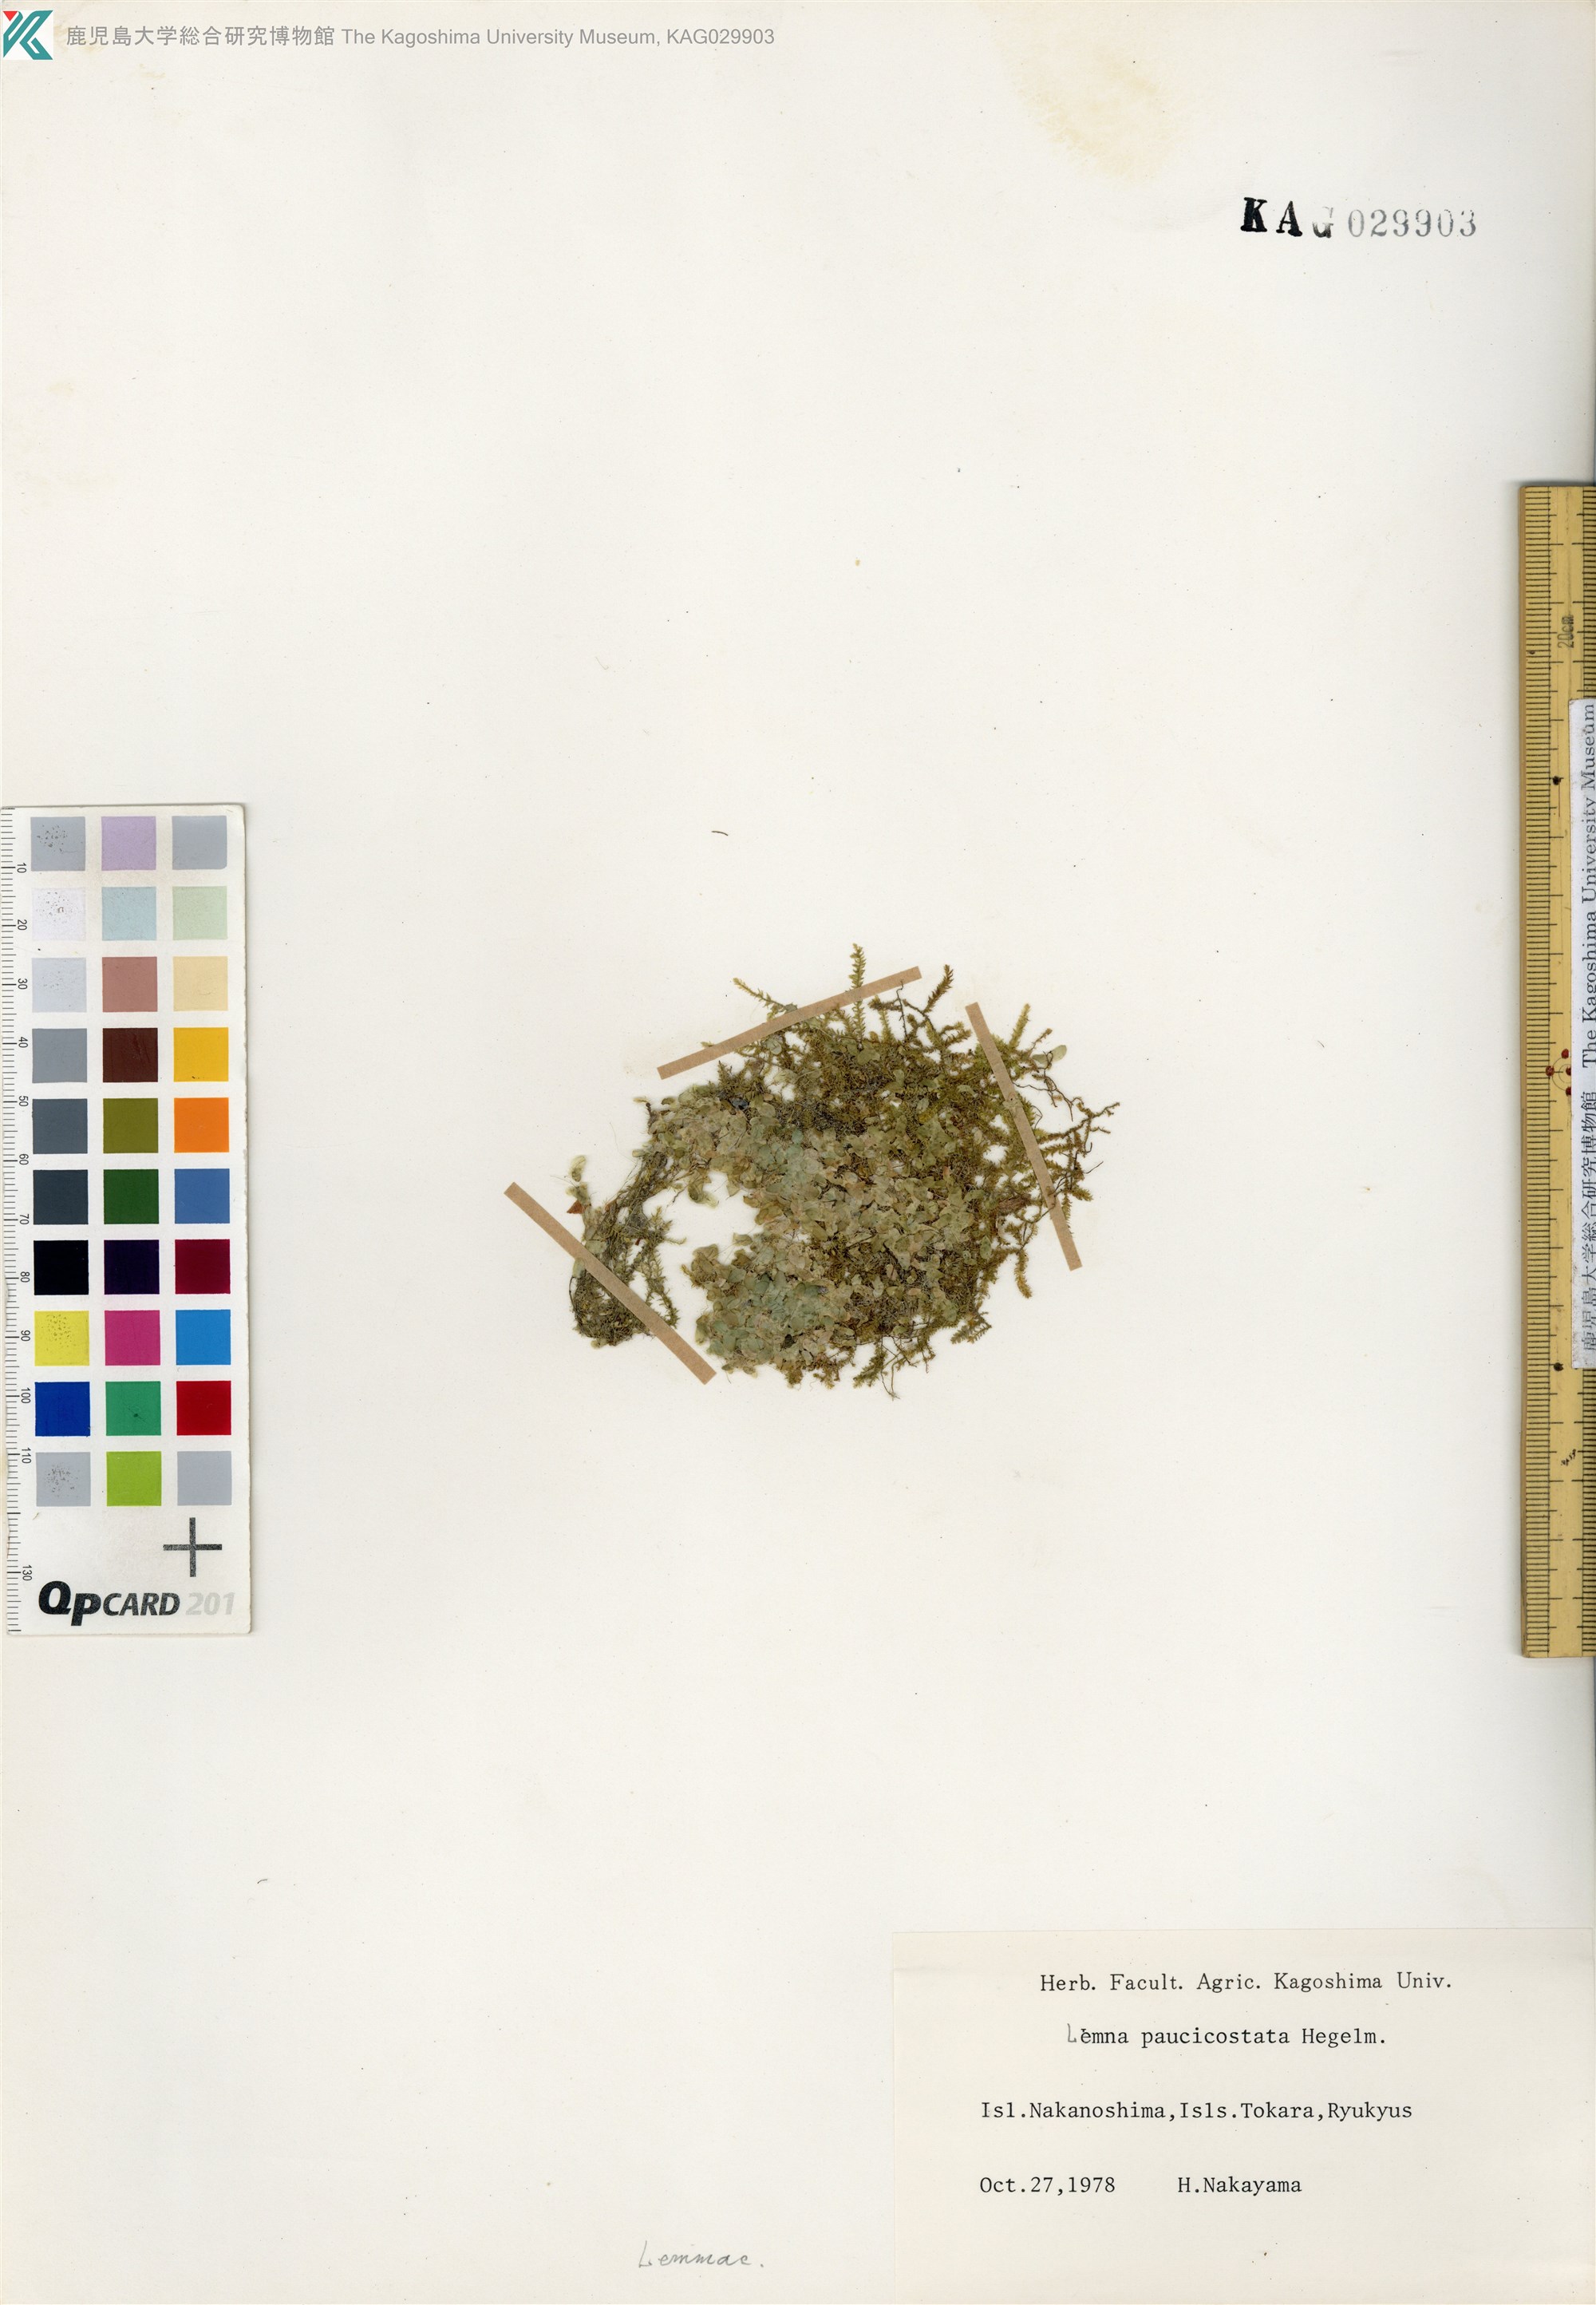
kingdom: Plantae
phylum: Tracheophyta
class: Liliopsida
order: Alismatales
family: Araceae
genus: Lemna
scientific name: Lemna aequinoctialis
